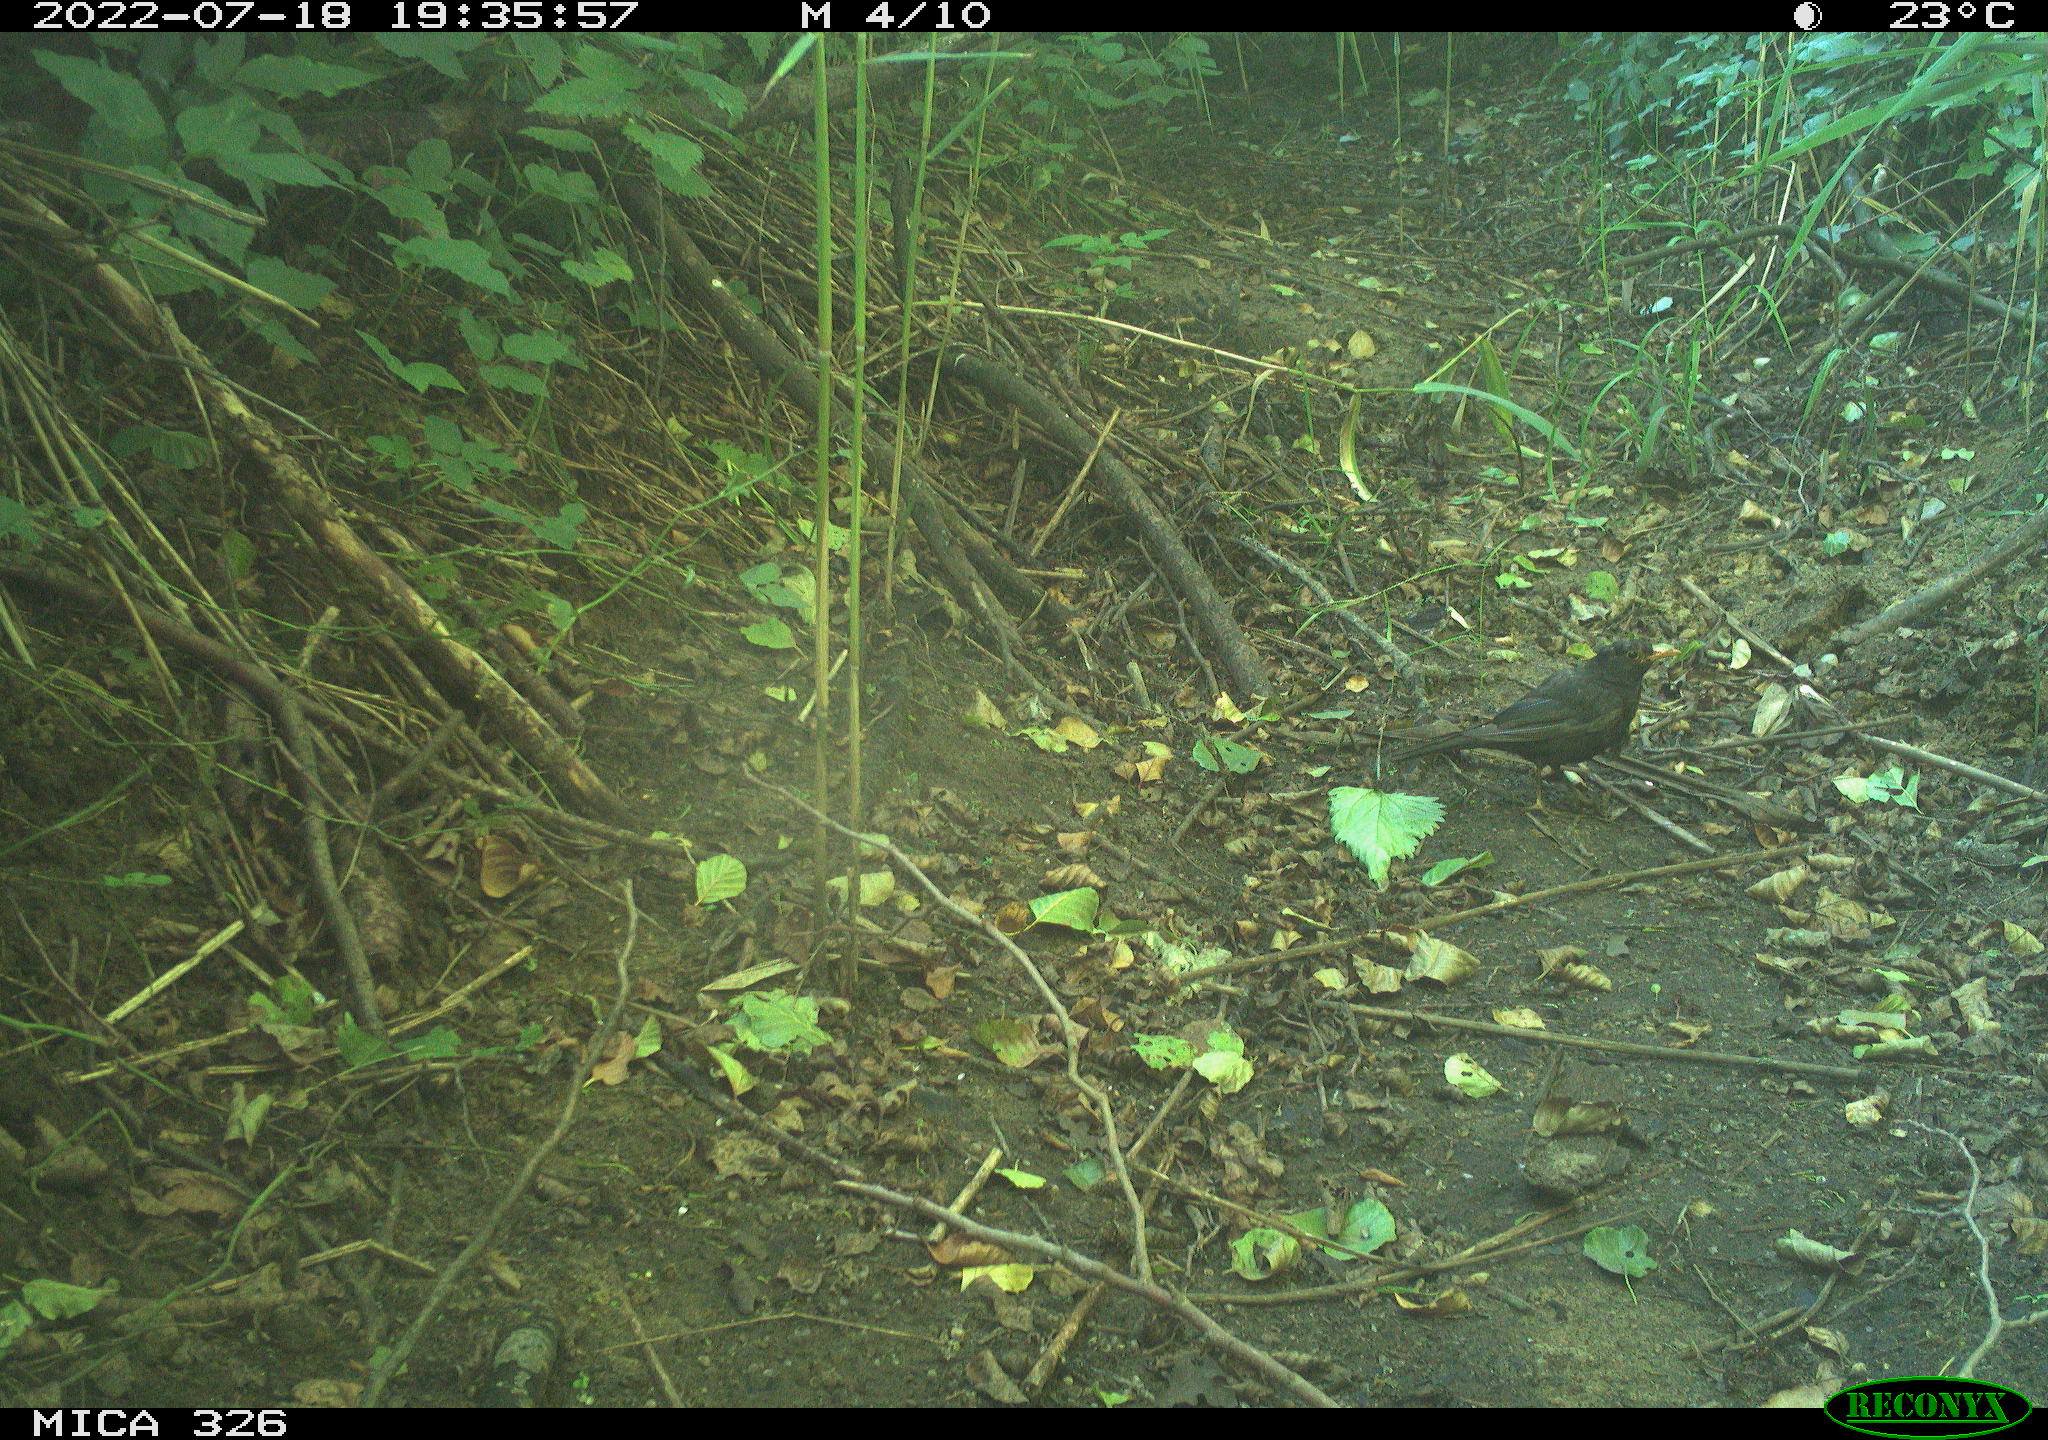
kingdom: Animalia
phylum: Chordata
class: Aves
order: Passeriformes
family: Turdidae
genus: Turdus
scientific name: Turdus merula
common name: Common blackbird
